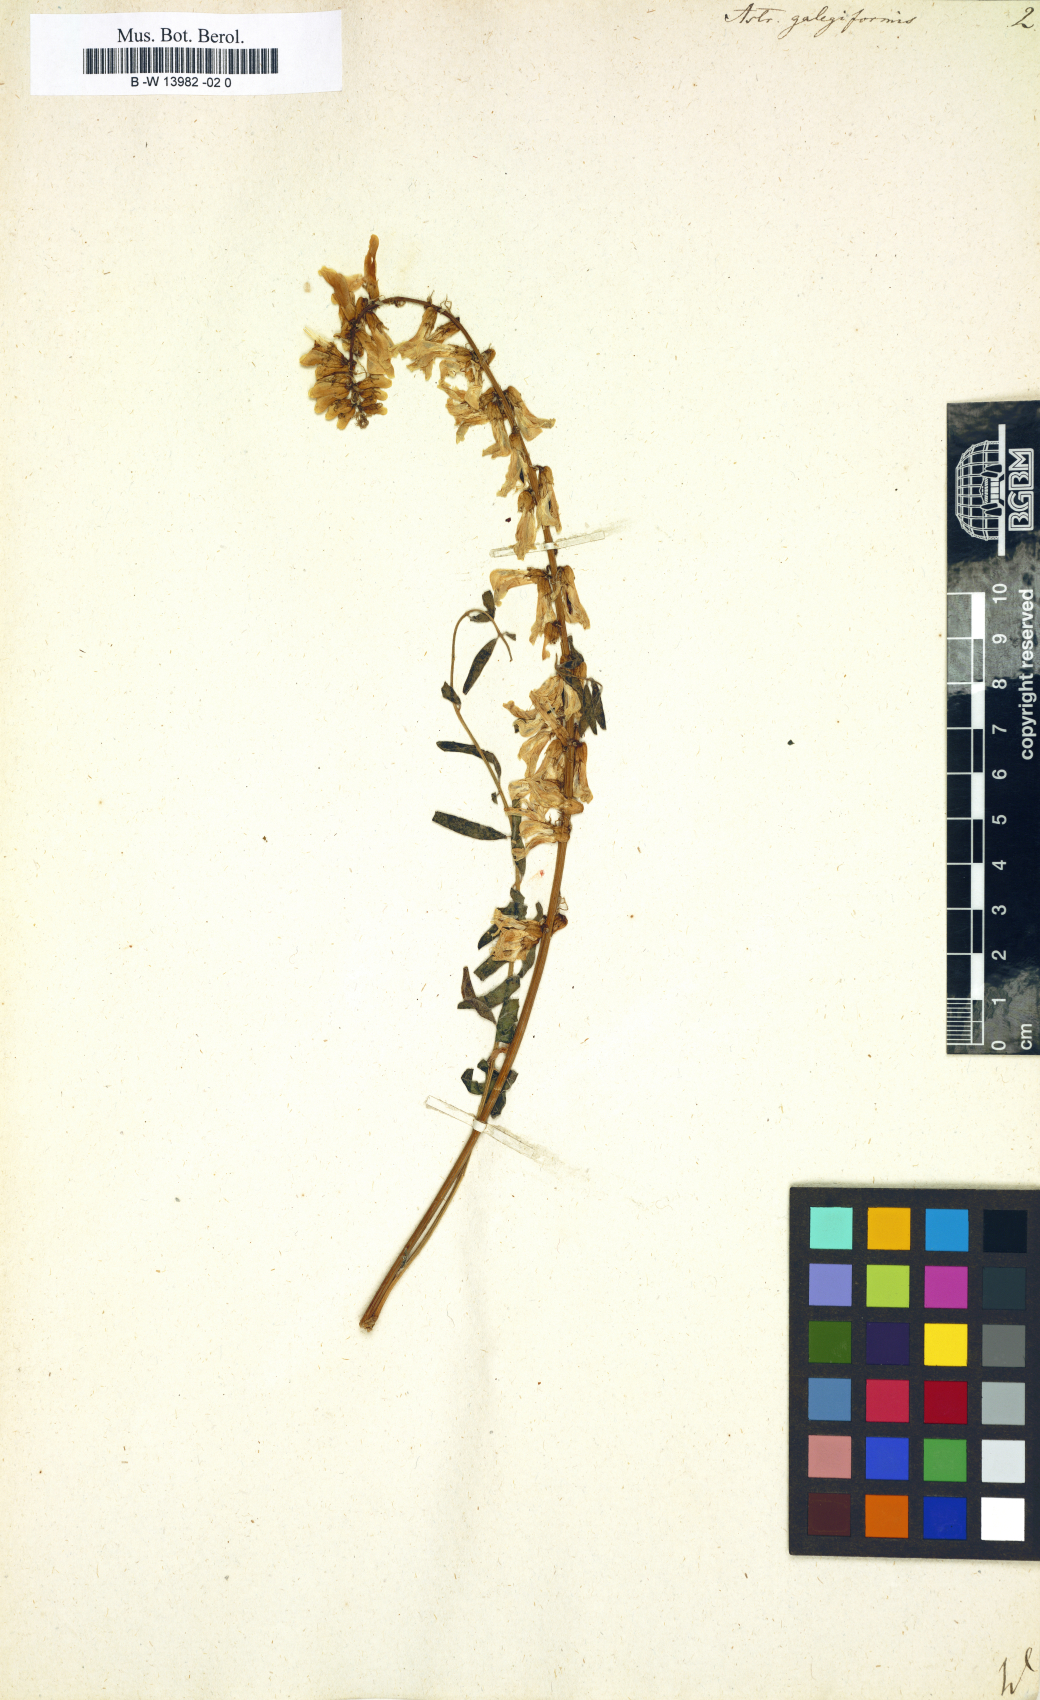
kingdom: Plantae
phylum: Tracheophyta
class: Magnoliopsida
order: Fabales
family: Fabaceae
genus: Astragalus
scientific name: Astragalus galegiformis
